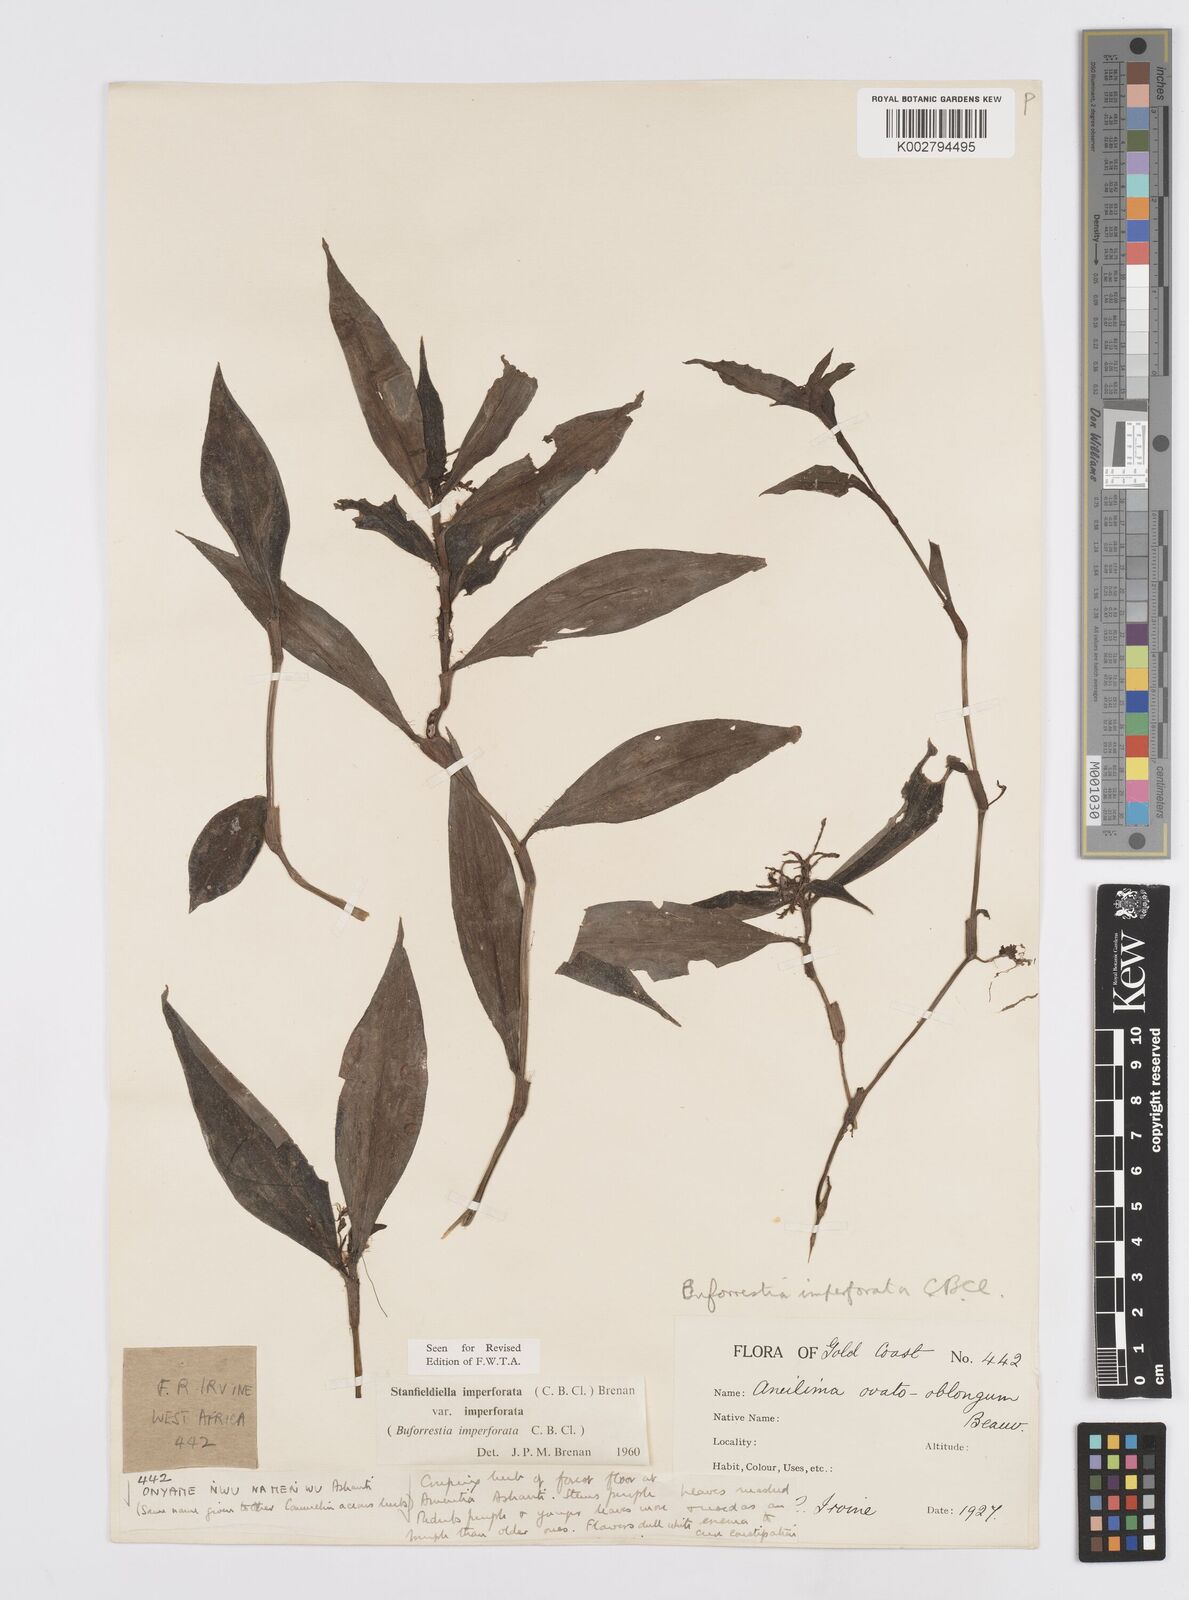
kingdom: Plantae
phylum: Tracheophyta
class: Liliopsida
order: Commelinales
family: Commelinaceae
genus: Stanfieldiella
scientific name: Stanfieldiella imperforata
